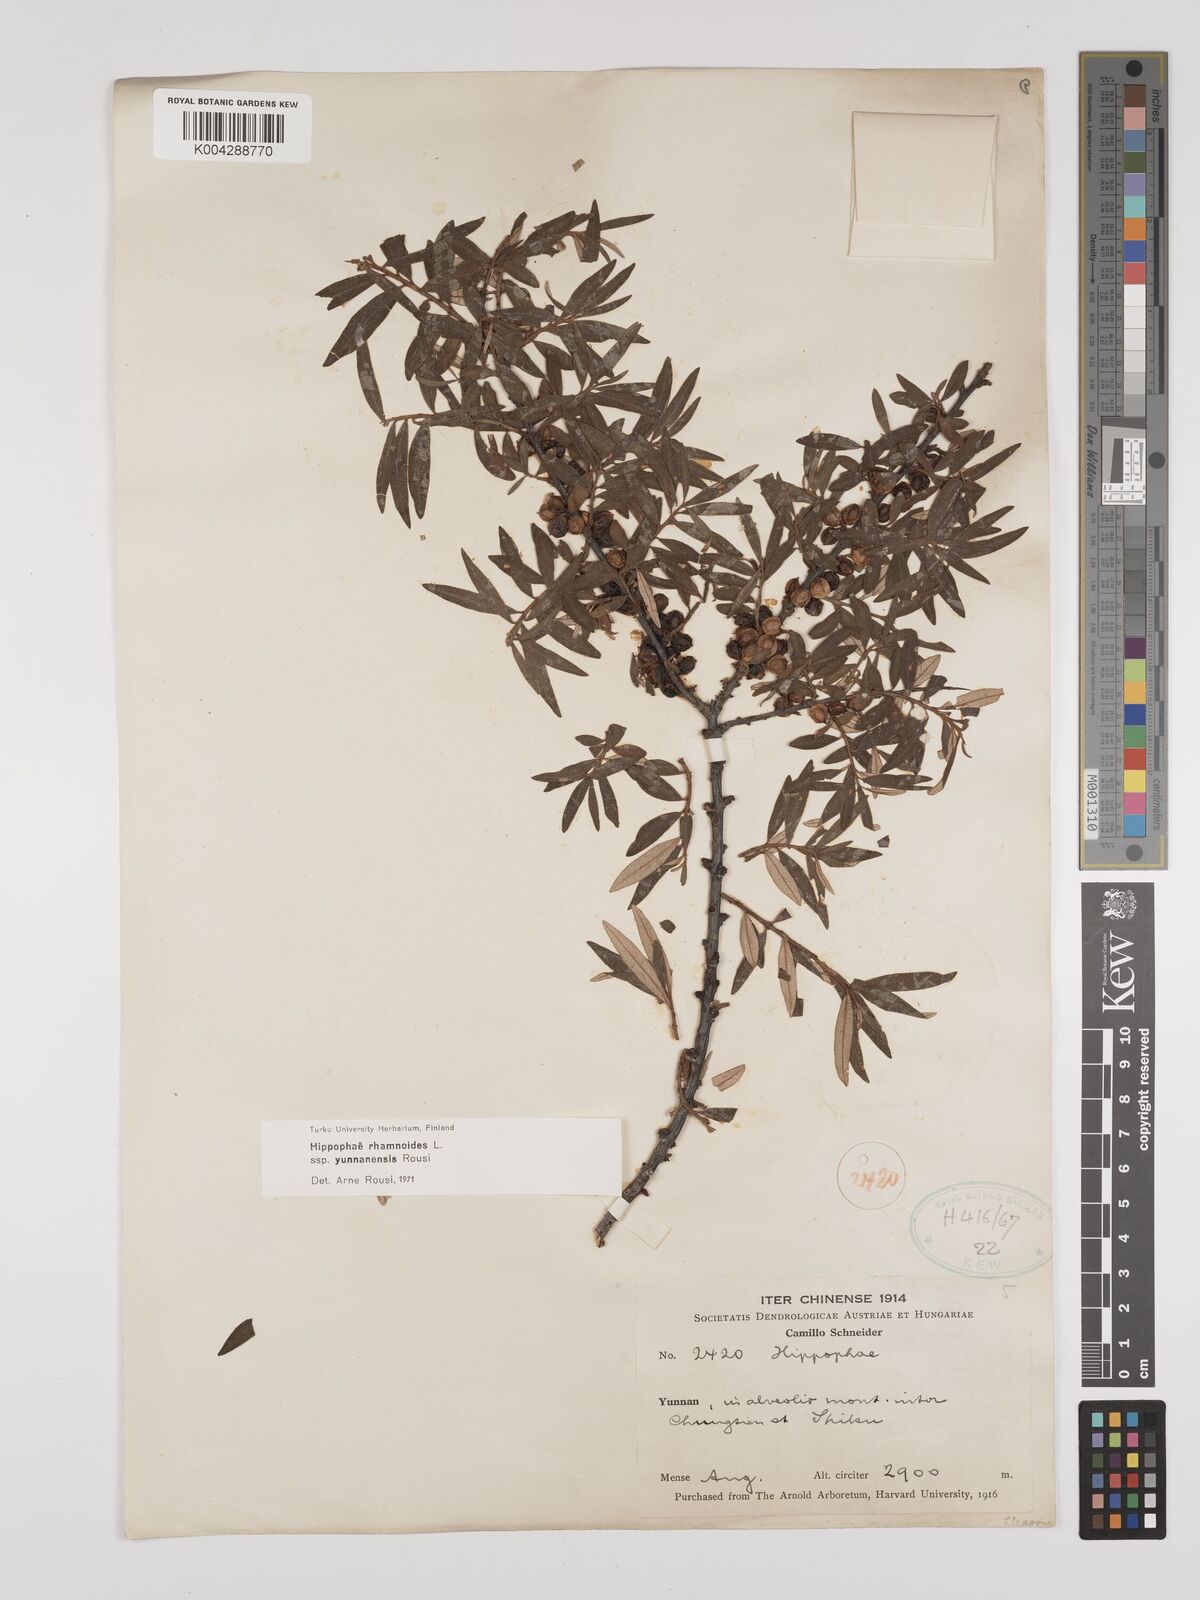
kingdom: Plantae
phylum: Tracheophyta
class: Magnoliopsida
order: Rosales
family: Elaeagnaceae
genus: Hippophae
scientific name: Hippophae rhamnoides
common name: Sea-buckthorn
